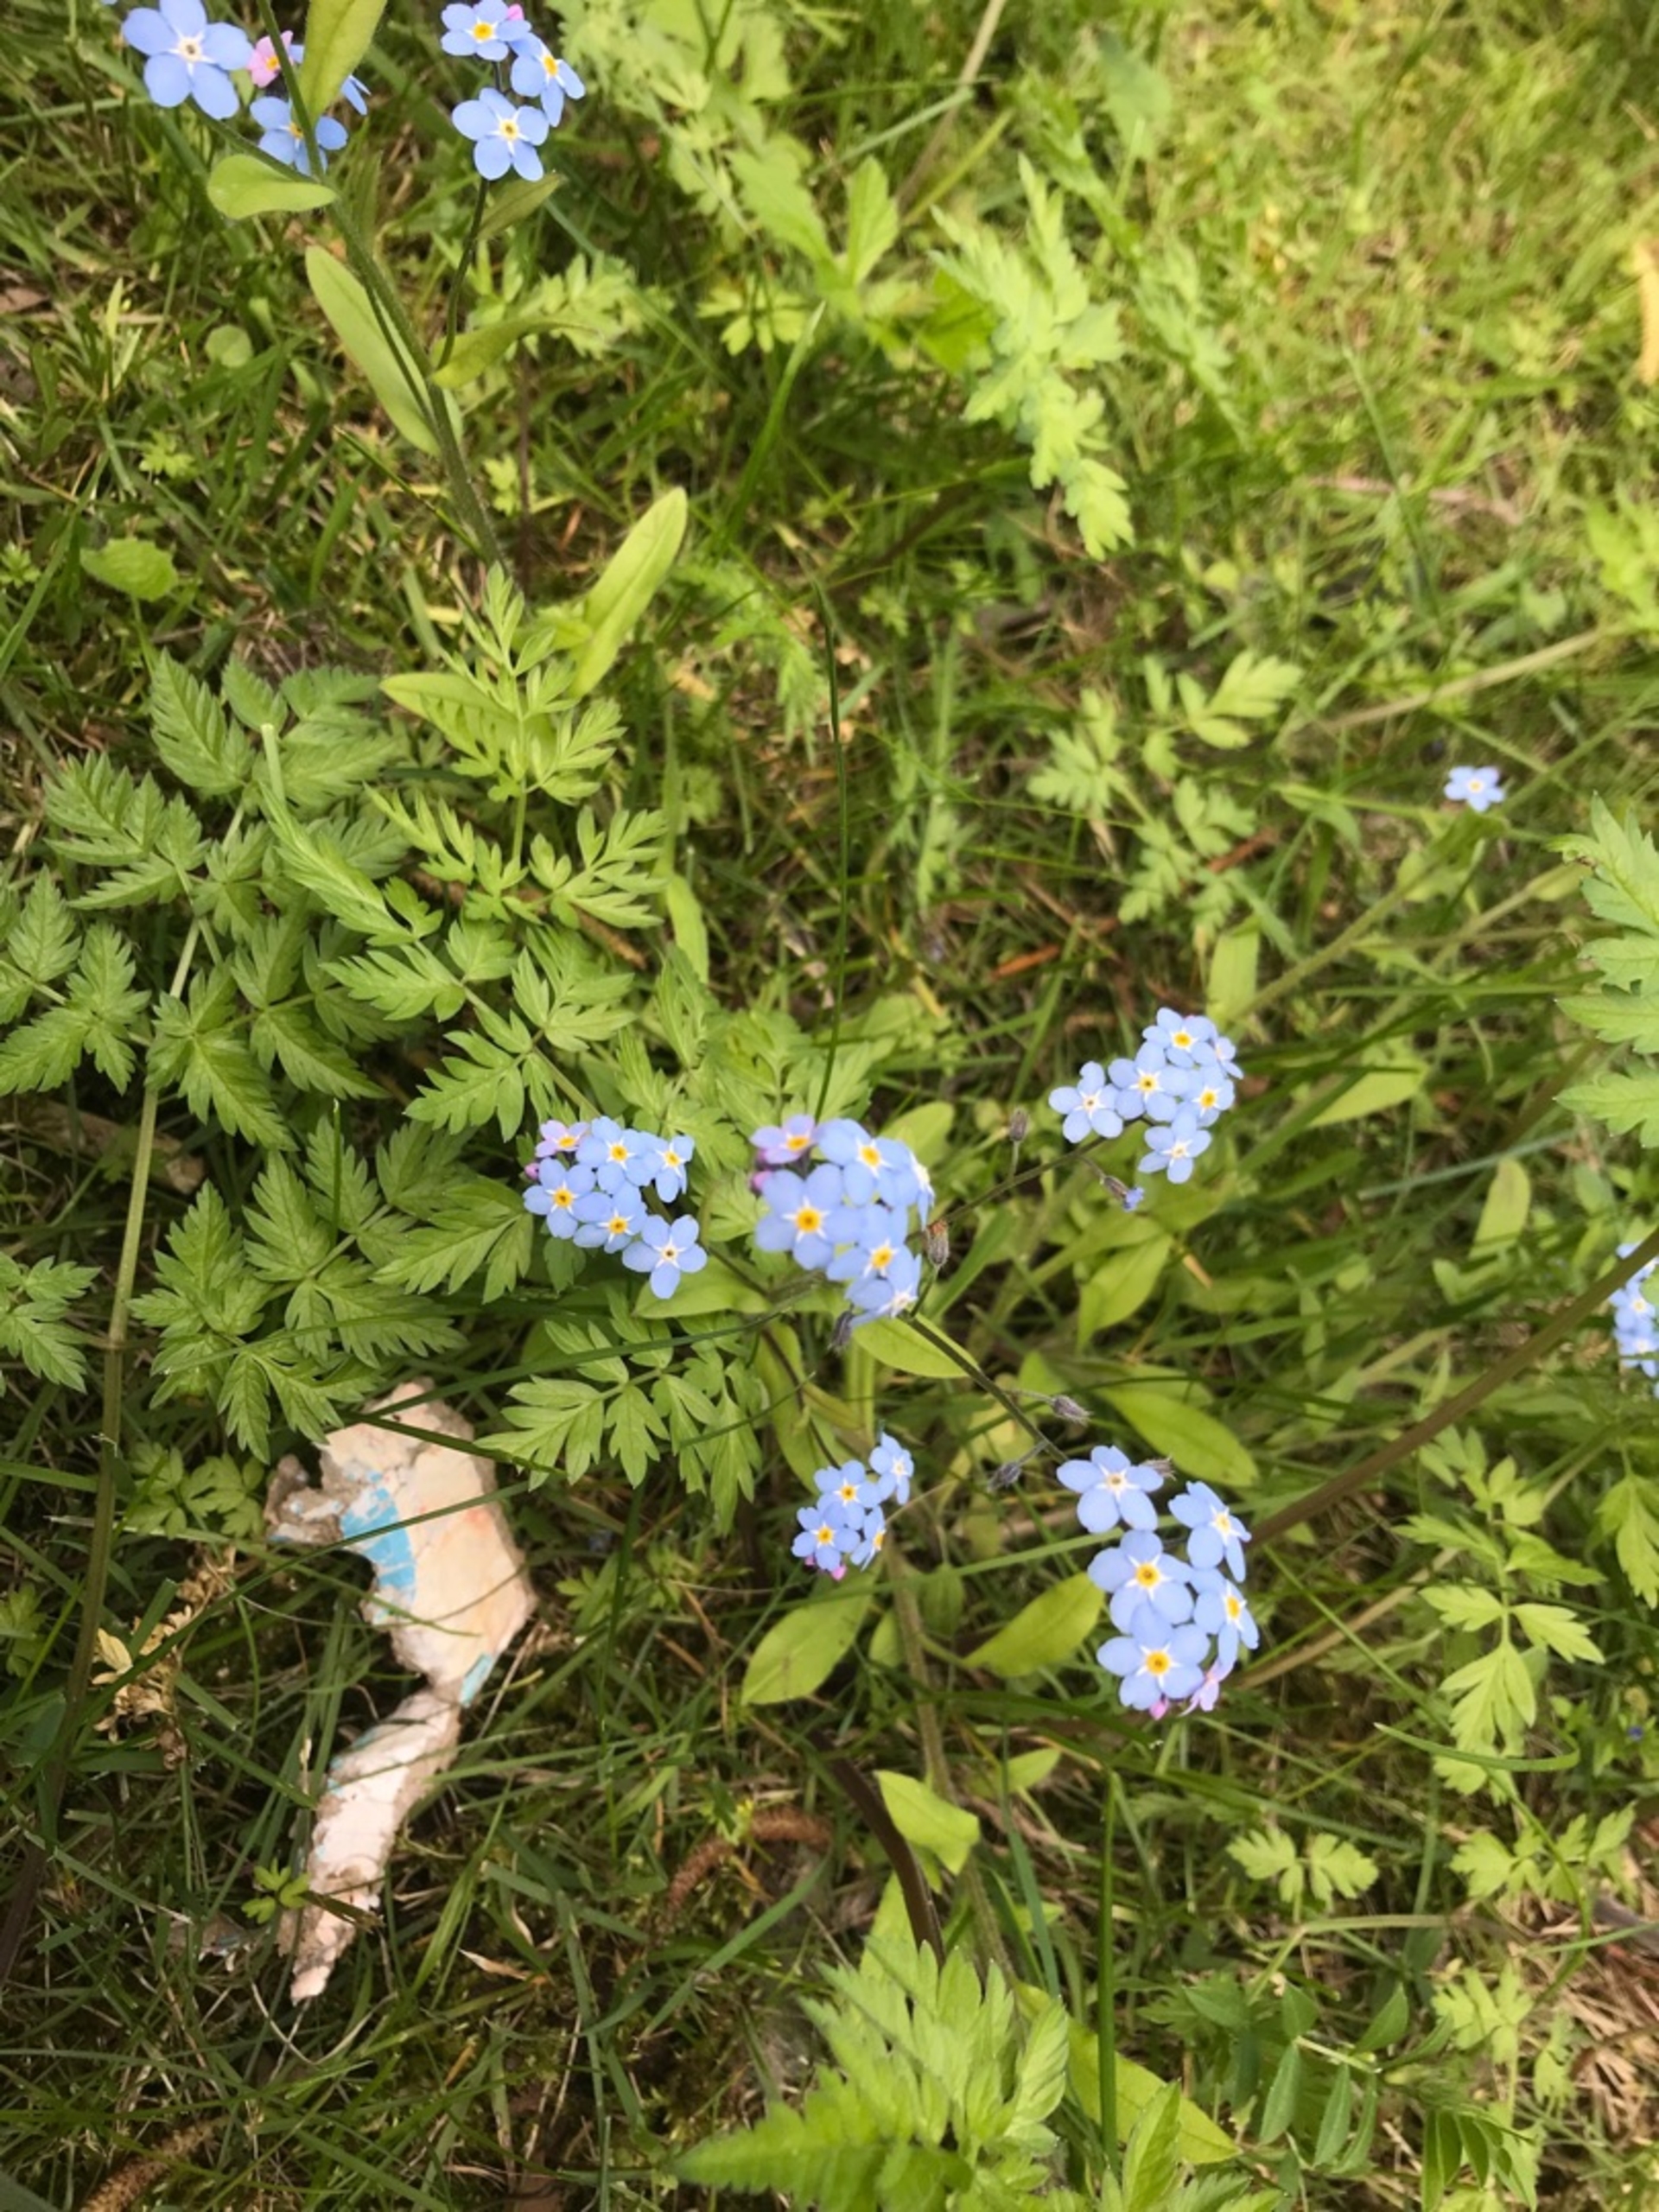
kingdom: Plantae
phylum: Tracheophyta
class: Magnoliopsida
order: Boraginales
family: Boraginaceae
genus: Myosotis
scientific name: Myosotis sylvatica
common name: Skov-forglemmigej
